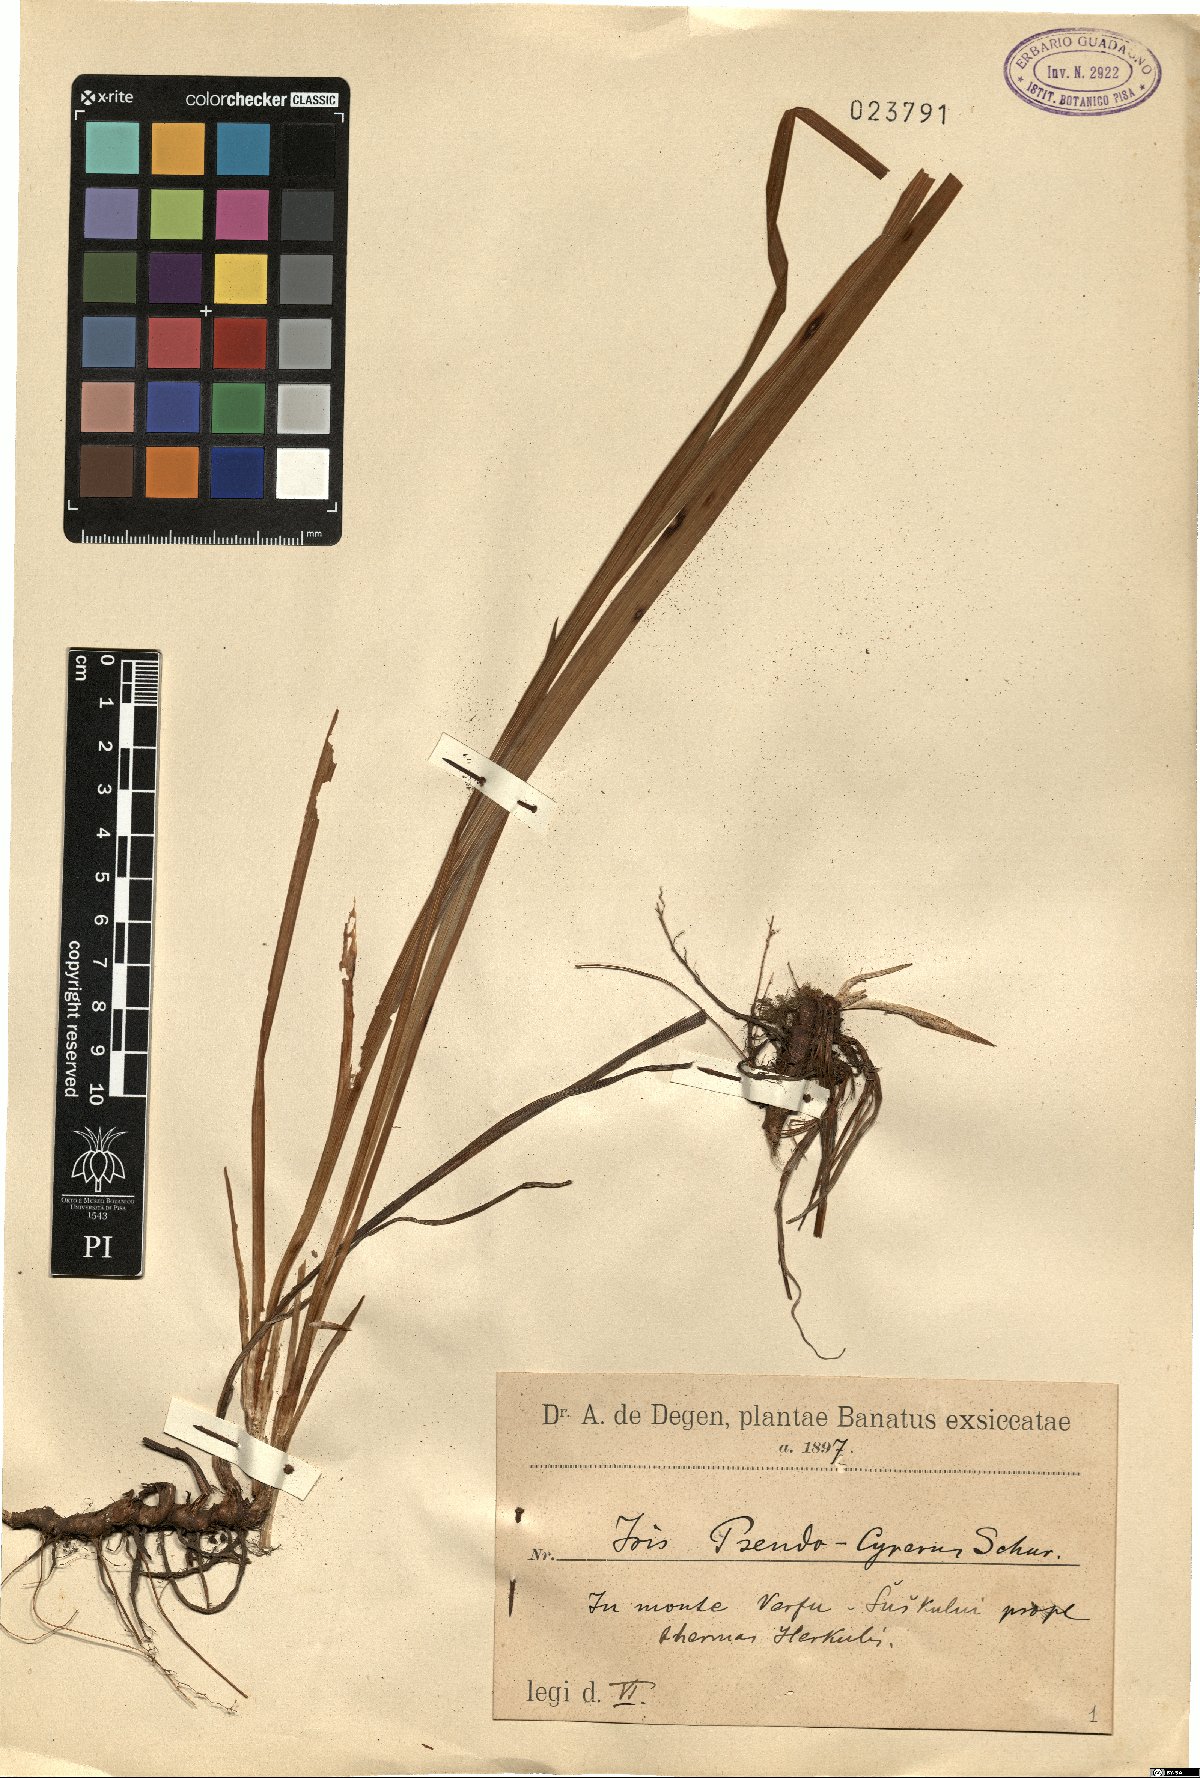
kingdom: Plantae
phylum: Tracheophyta
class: Liliopsida
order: Asparagales
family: Iridaceae
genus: Iris
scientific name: Iris graminea
